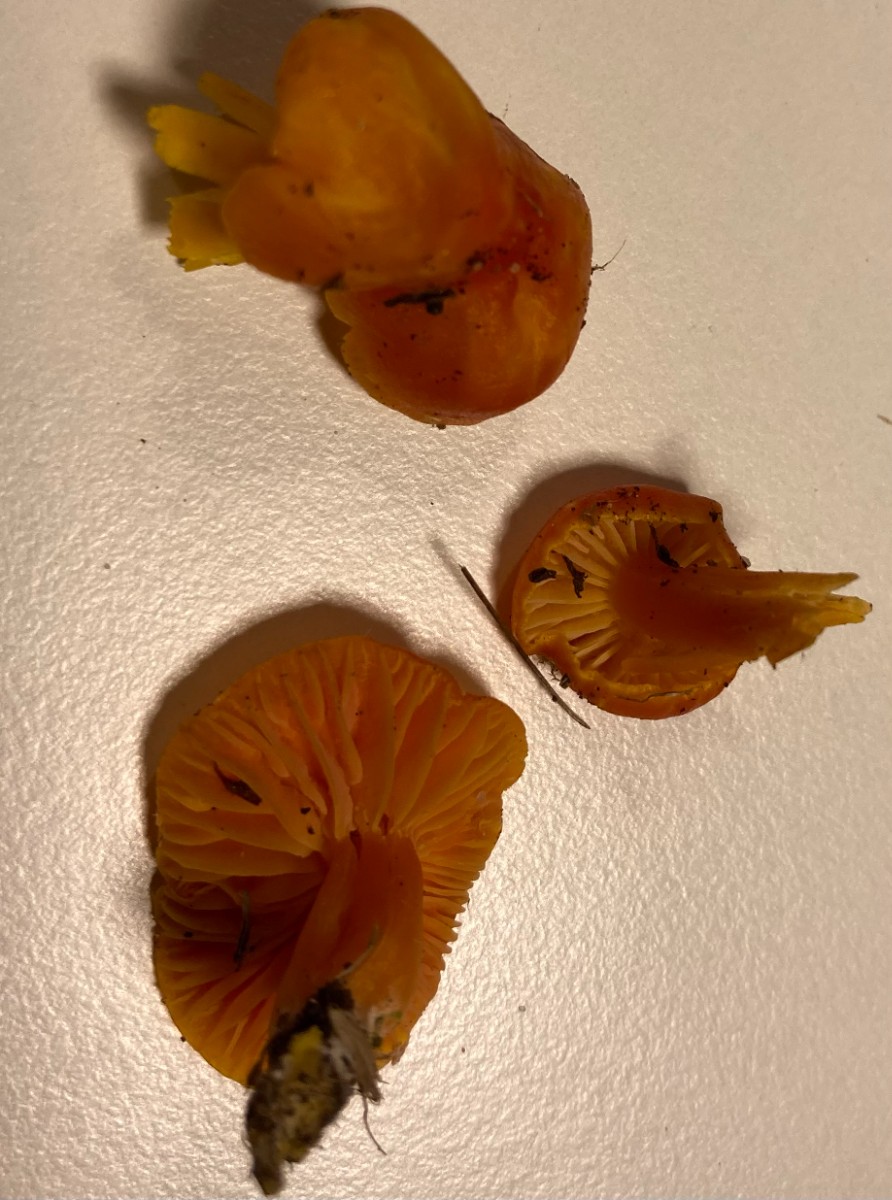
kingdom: Fungi
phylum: Basidiomycota
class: Agaricomycetes
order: Agaricales
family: Hygrophoraceae
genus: Hygrocybe
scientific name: Hygrocybe
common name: vokshat
